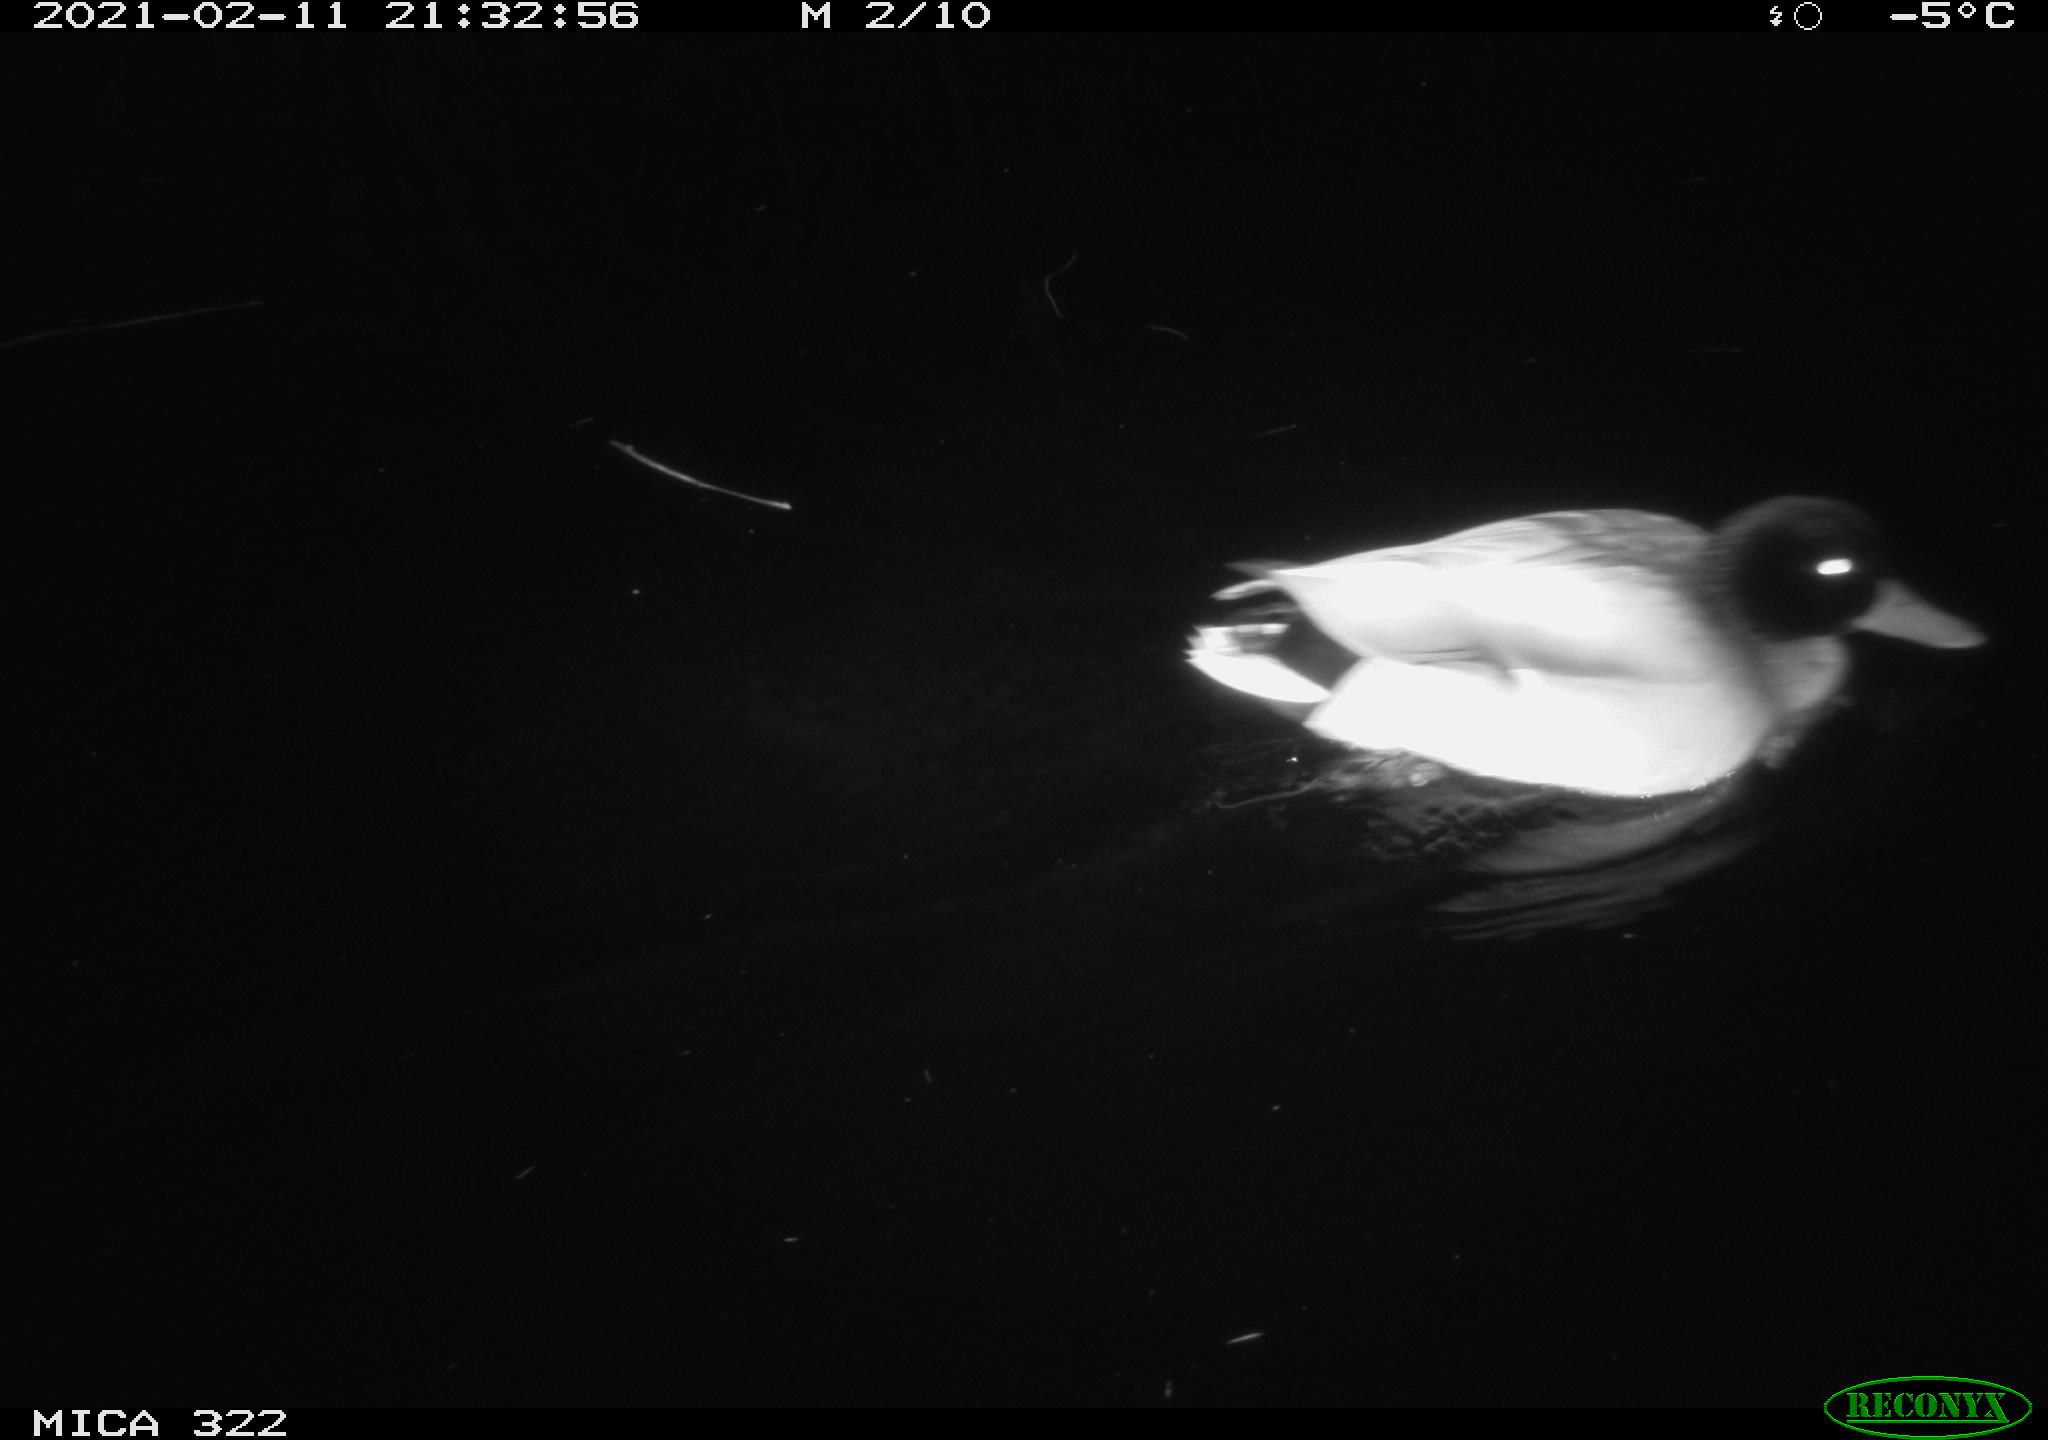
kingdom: Animalia
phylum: Chordata
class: Aves
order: Anseriformes
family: Anatidae
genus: Anas
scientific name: Anas platyrhynchos
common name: Mallard
